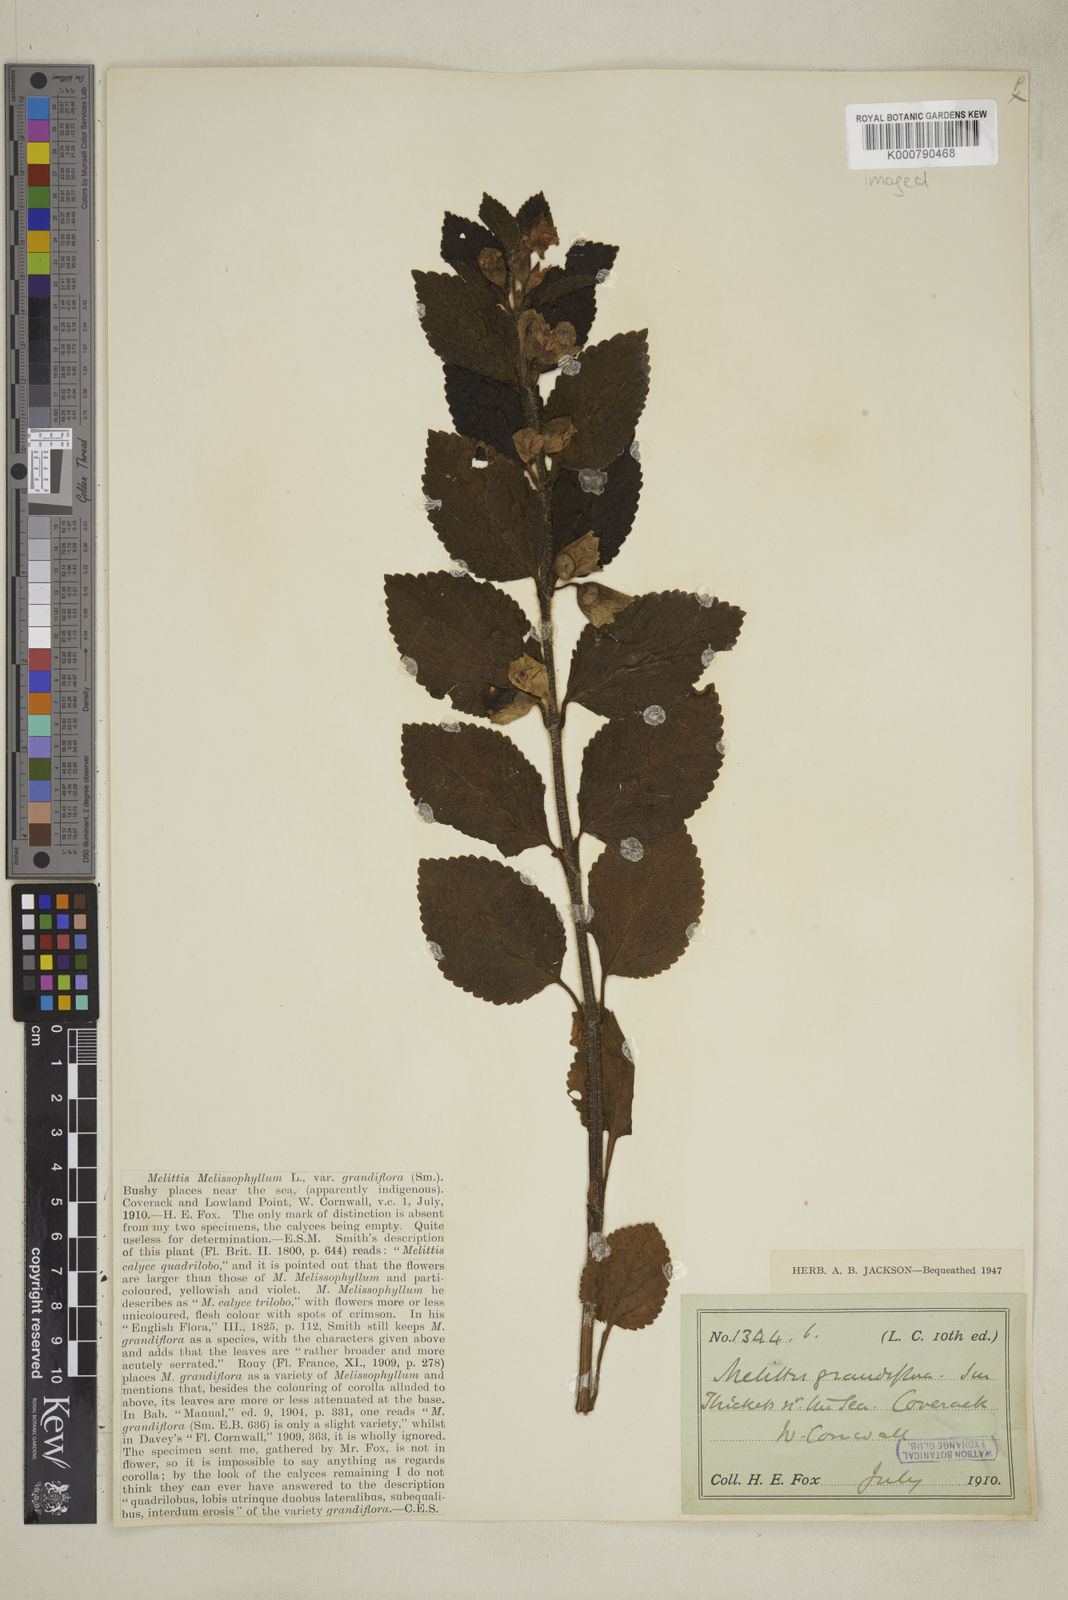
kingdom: Plantae
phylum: Tracheophyta
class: Magnoliopsida
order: Lamiales
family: Lamiaceae
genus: Melittis
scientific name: Melittis melissophyllum
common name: Bastard balm
